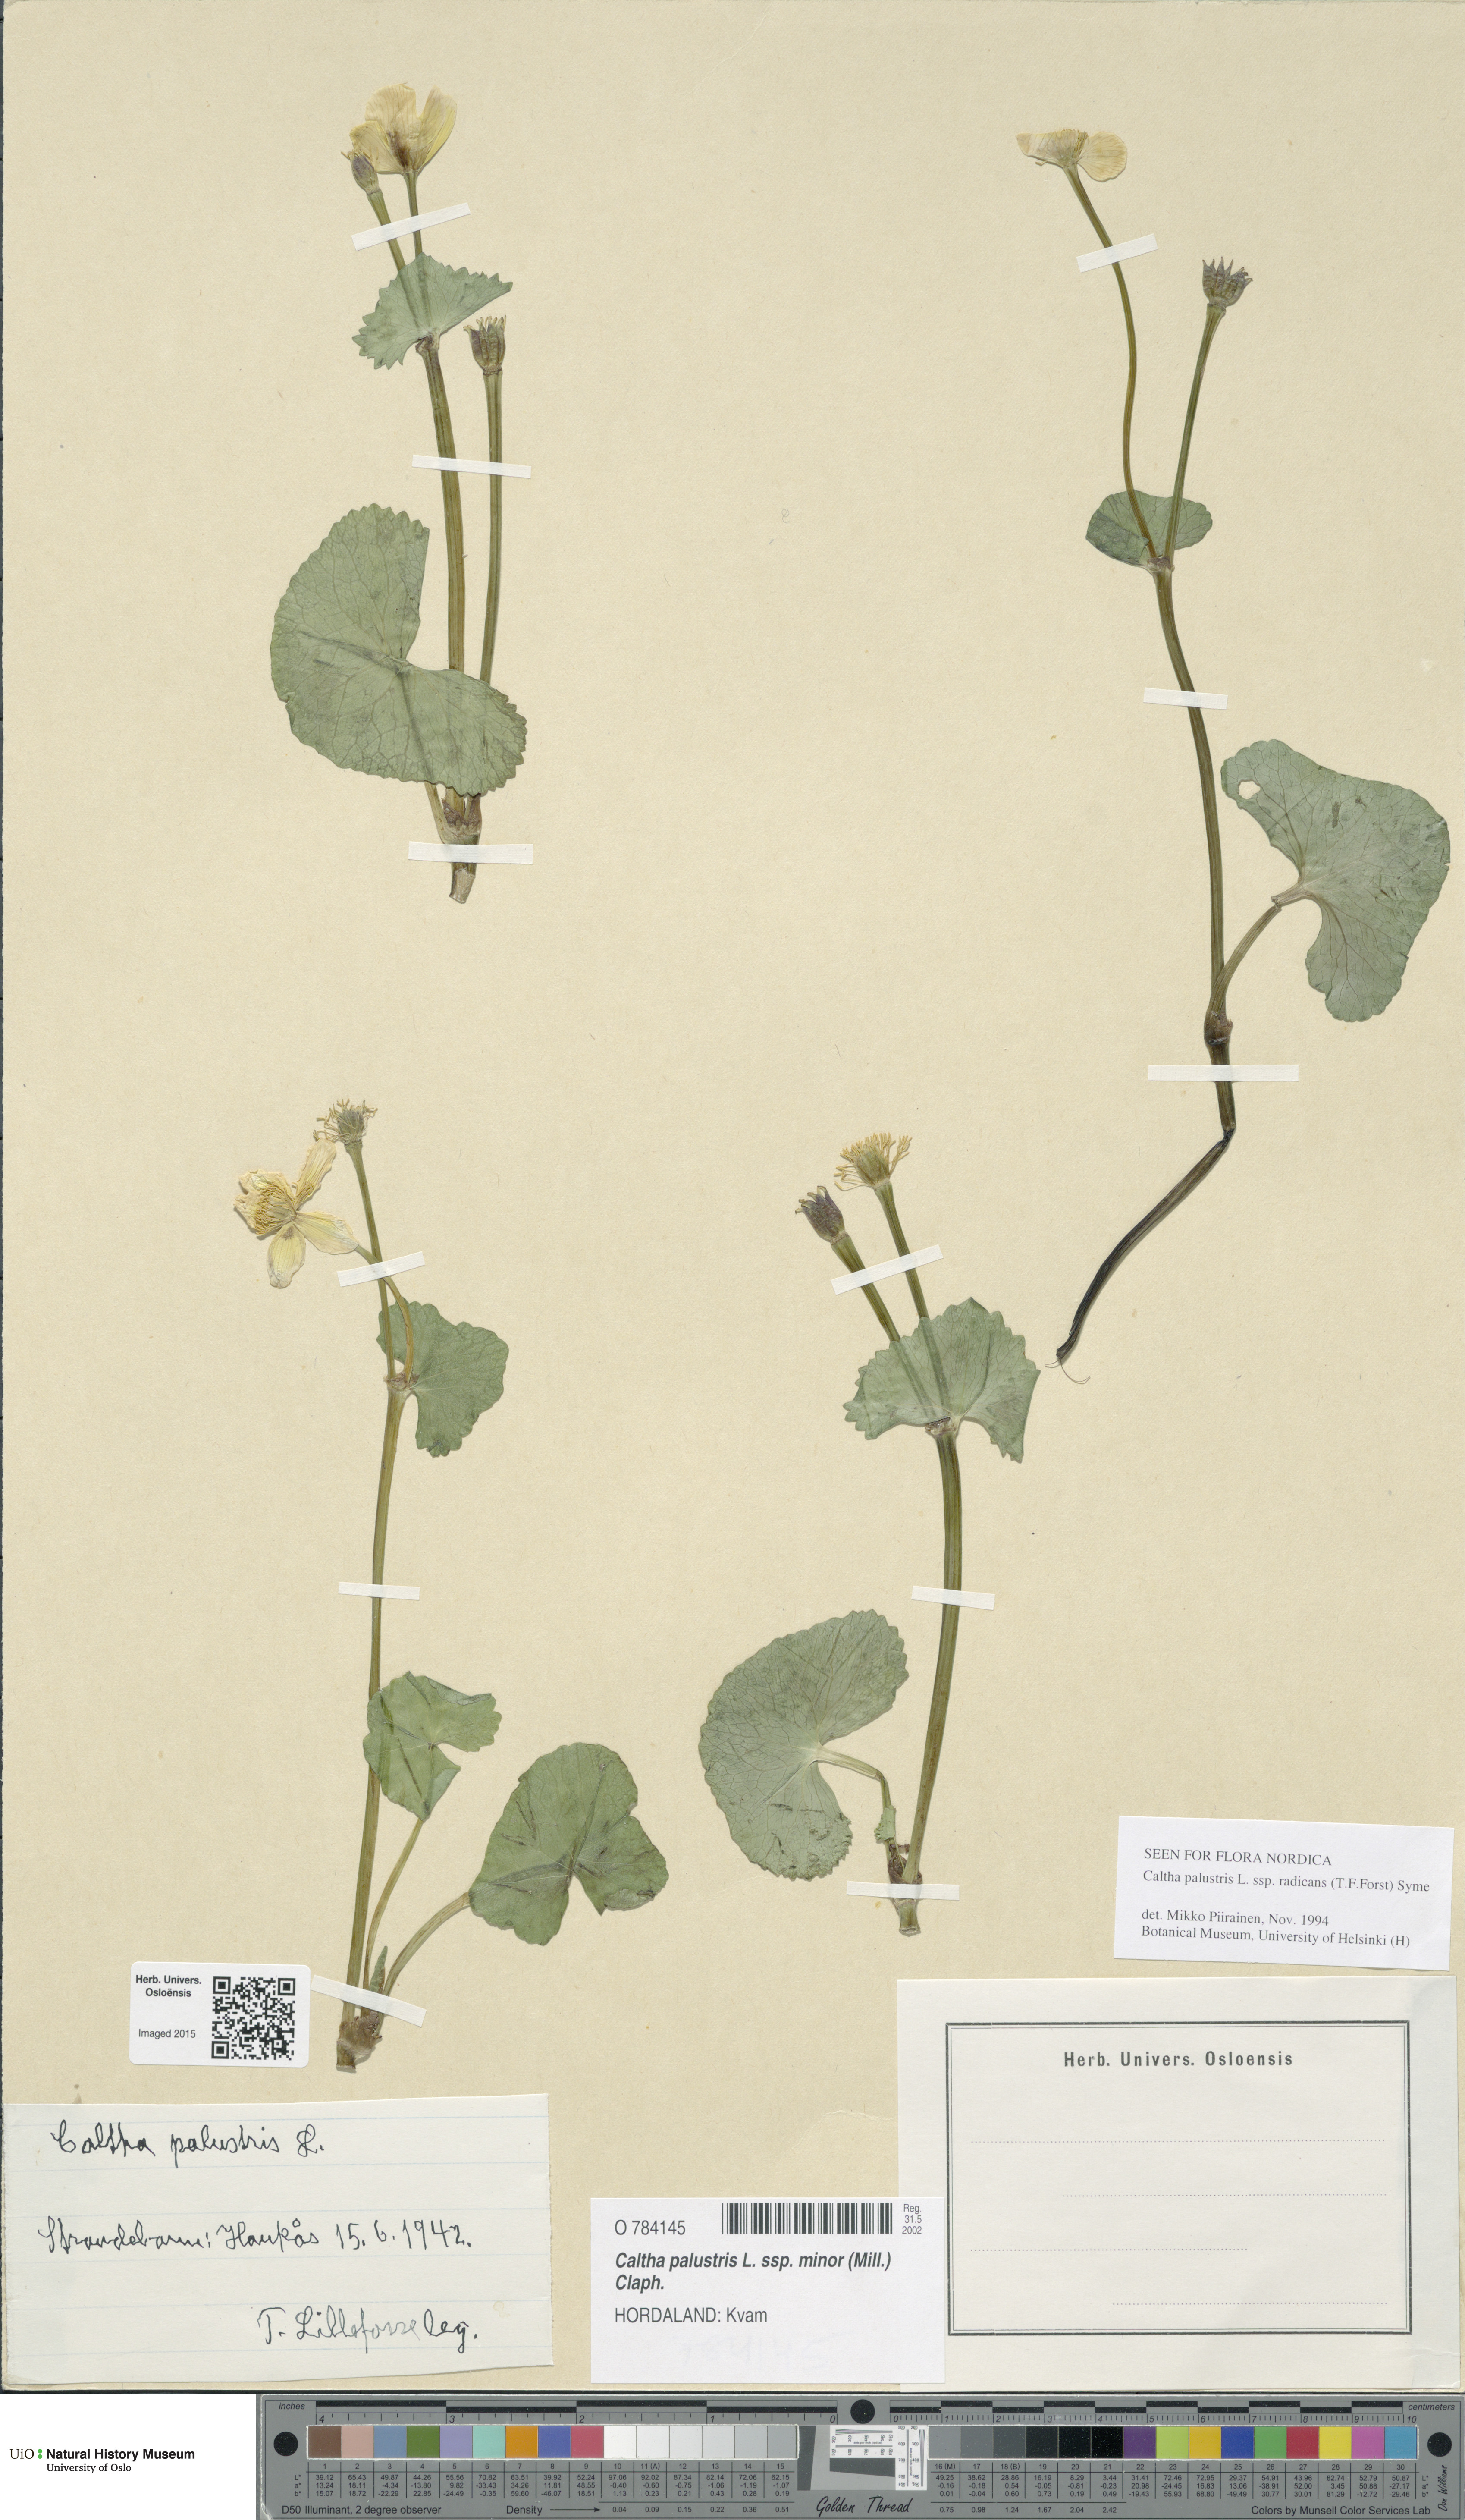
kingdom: Plantae
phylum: Tracheophyta
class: Magnoliopsida
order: Ranunculales
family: Ranunculaceae
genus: Caltha
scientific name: Caltha palustris
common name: Marsh marigold
